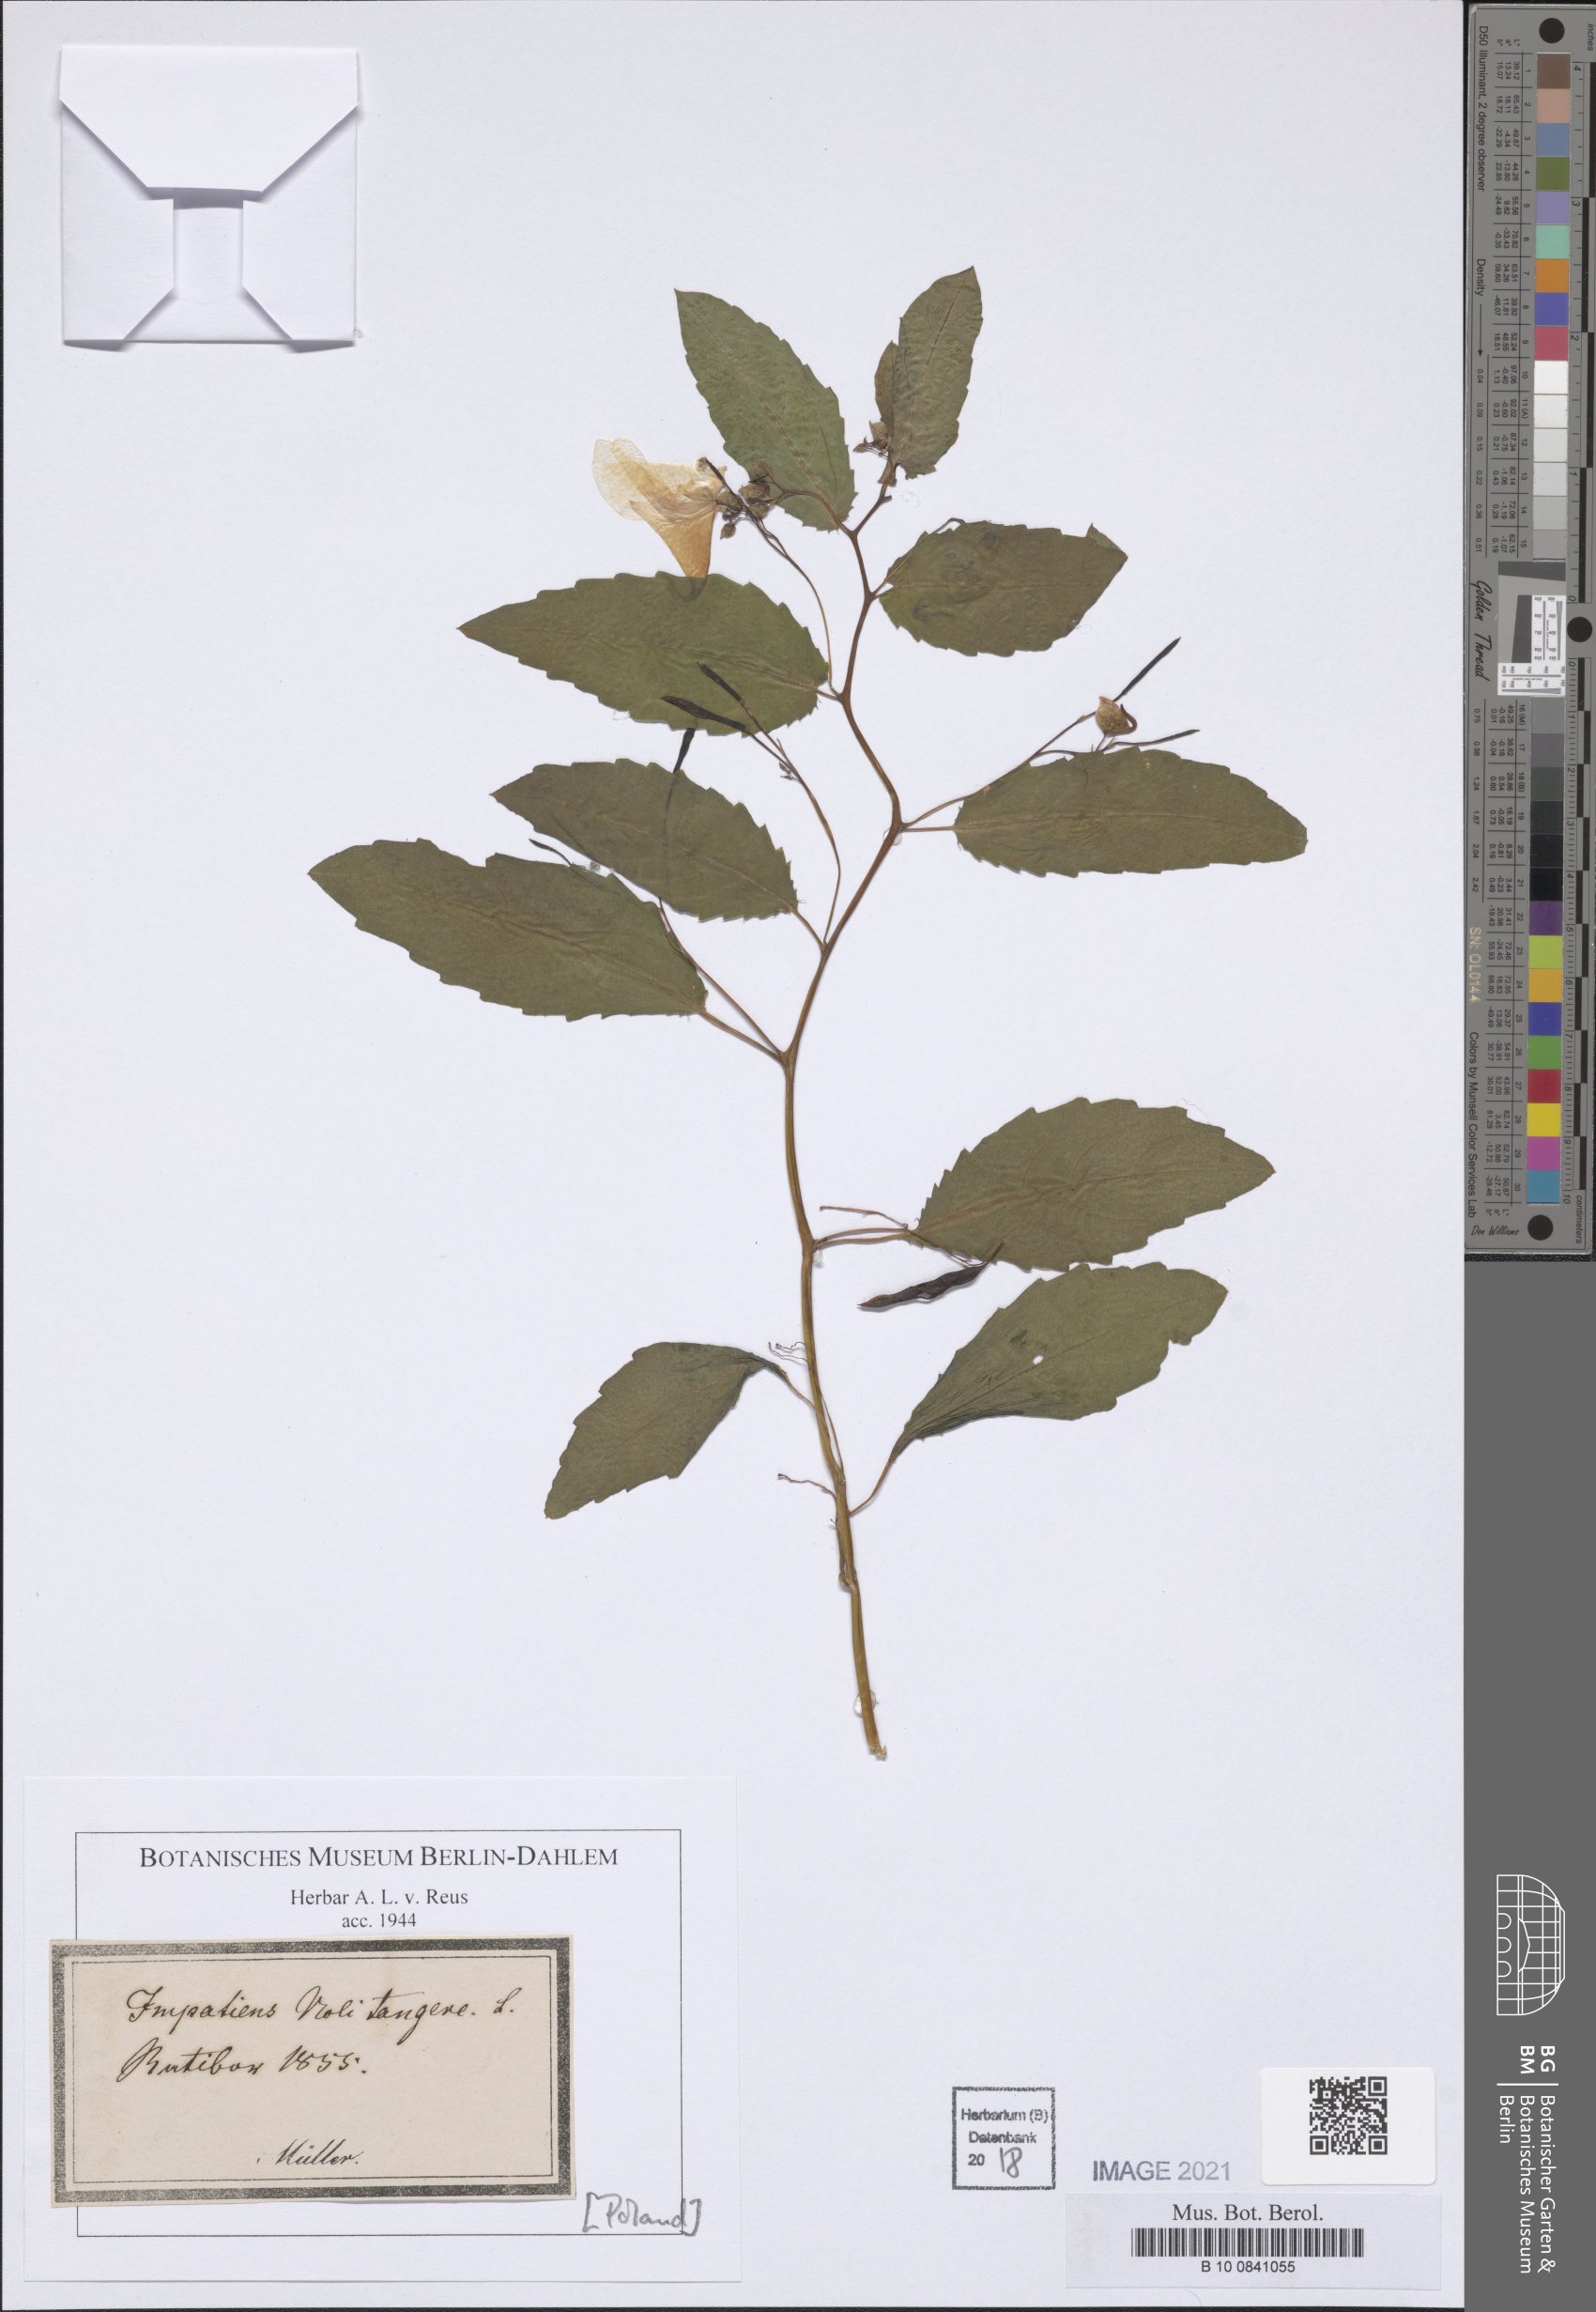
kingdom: Plantae
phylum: Tracheophyta
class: Magnoliopsida
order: Ericales
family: Balsaminaceae
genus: Impatiens
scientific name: Impatiens noli-tangere
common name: Touch-me-not balsam
